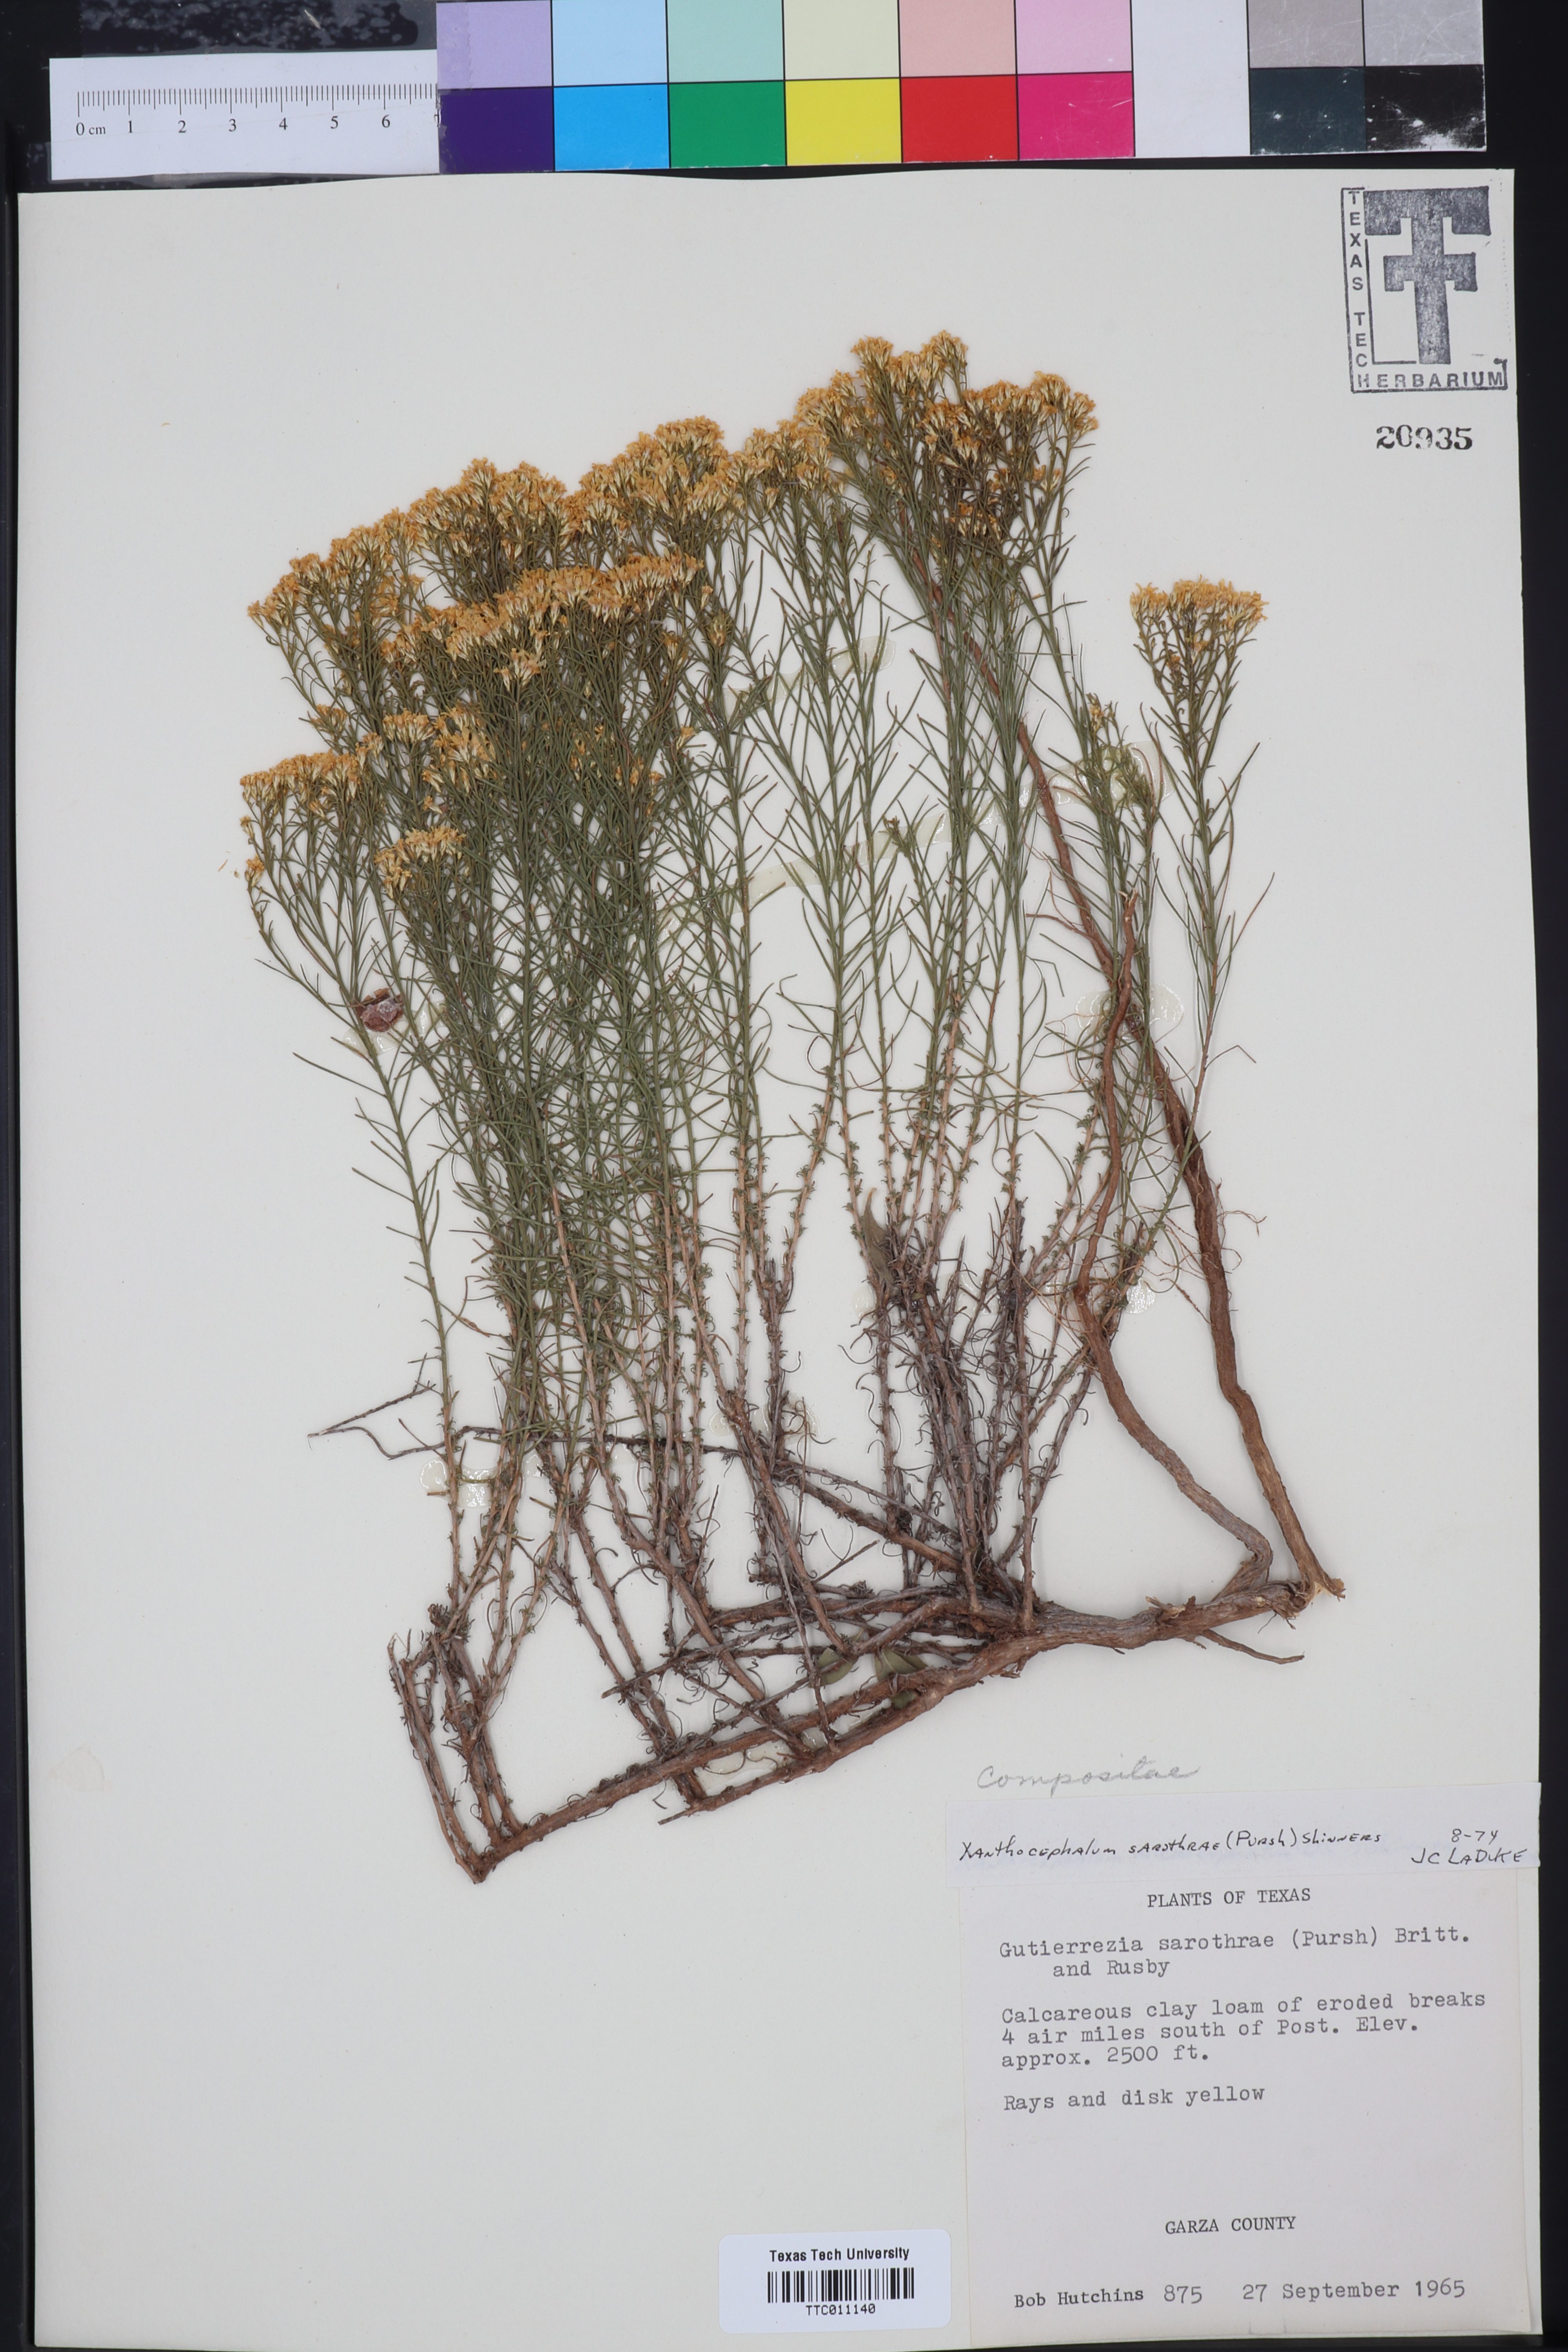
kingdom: Plantae
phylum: Tracheophyta
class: Magnoliopsida
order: Asterales
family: Asteraceae
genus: Gutierrezia
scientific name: Gutierrezia sarothrae
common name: Broom snakeweed
